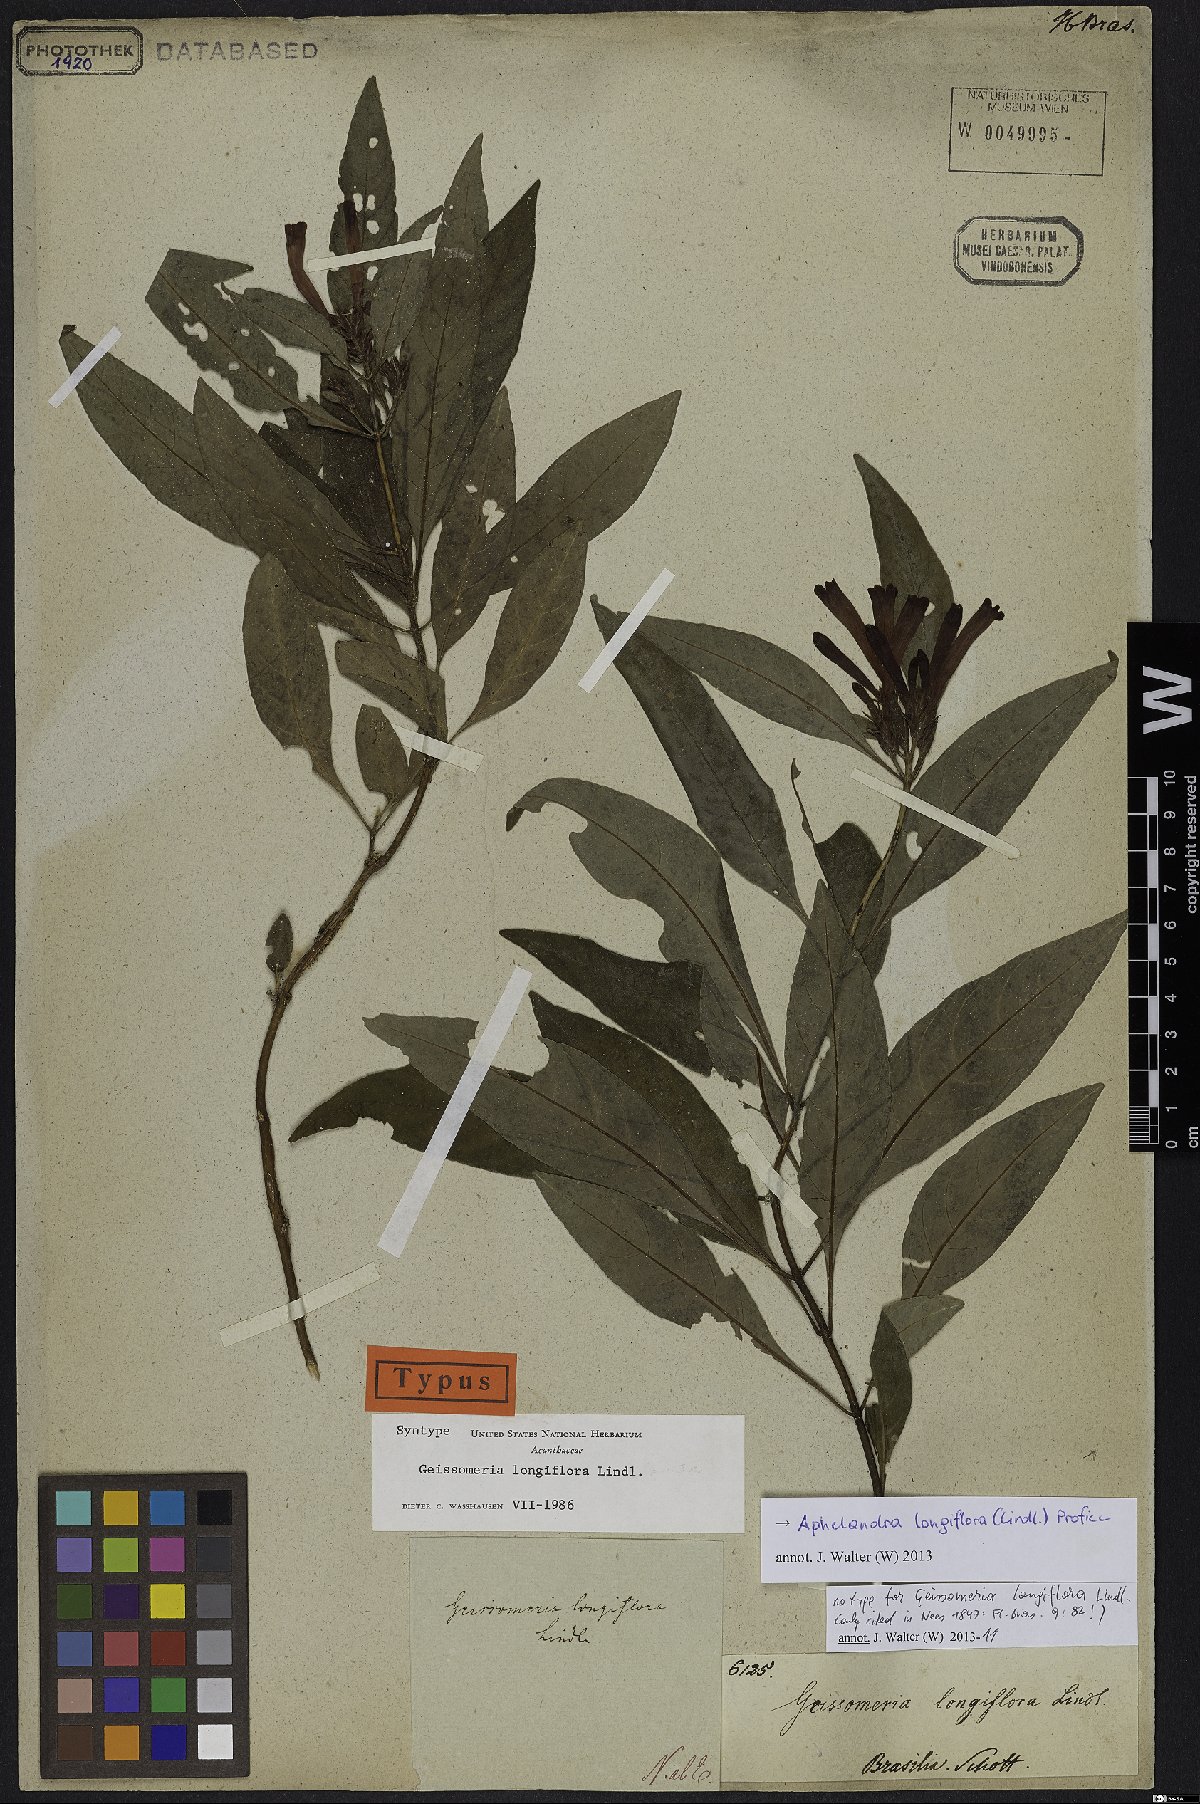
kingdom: Plantae
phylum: Tracheophyta
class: Magnoliopsida
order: Lamiales
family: Acanthaceae
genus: Aphelandra
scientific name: Aphelandra longiflora
